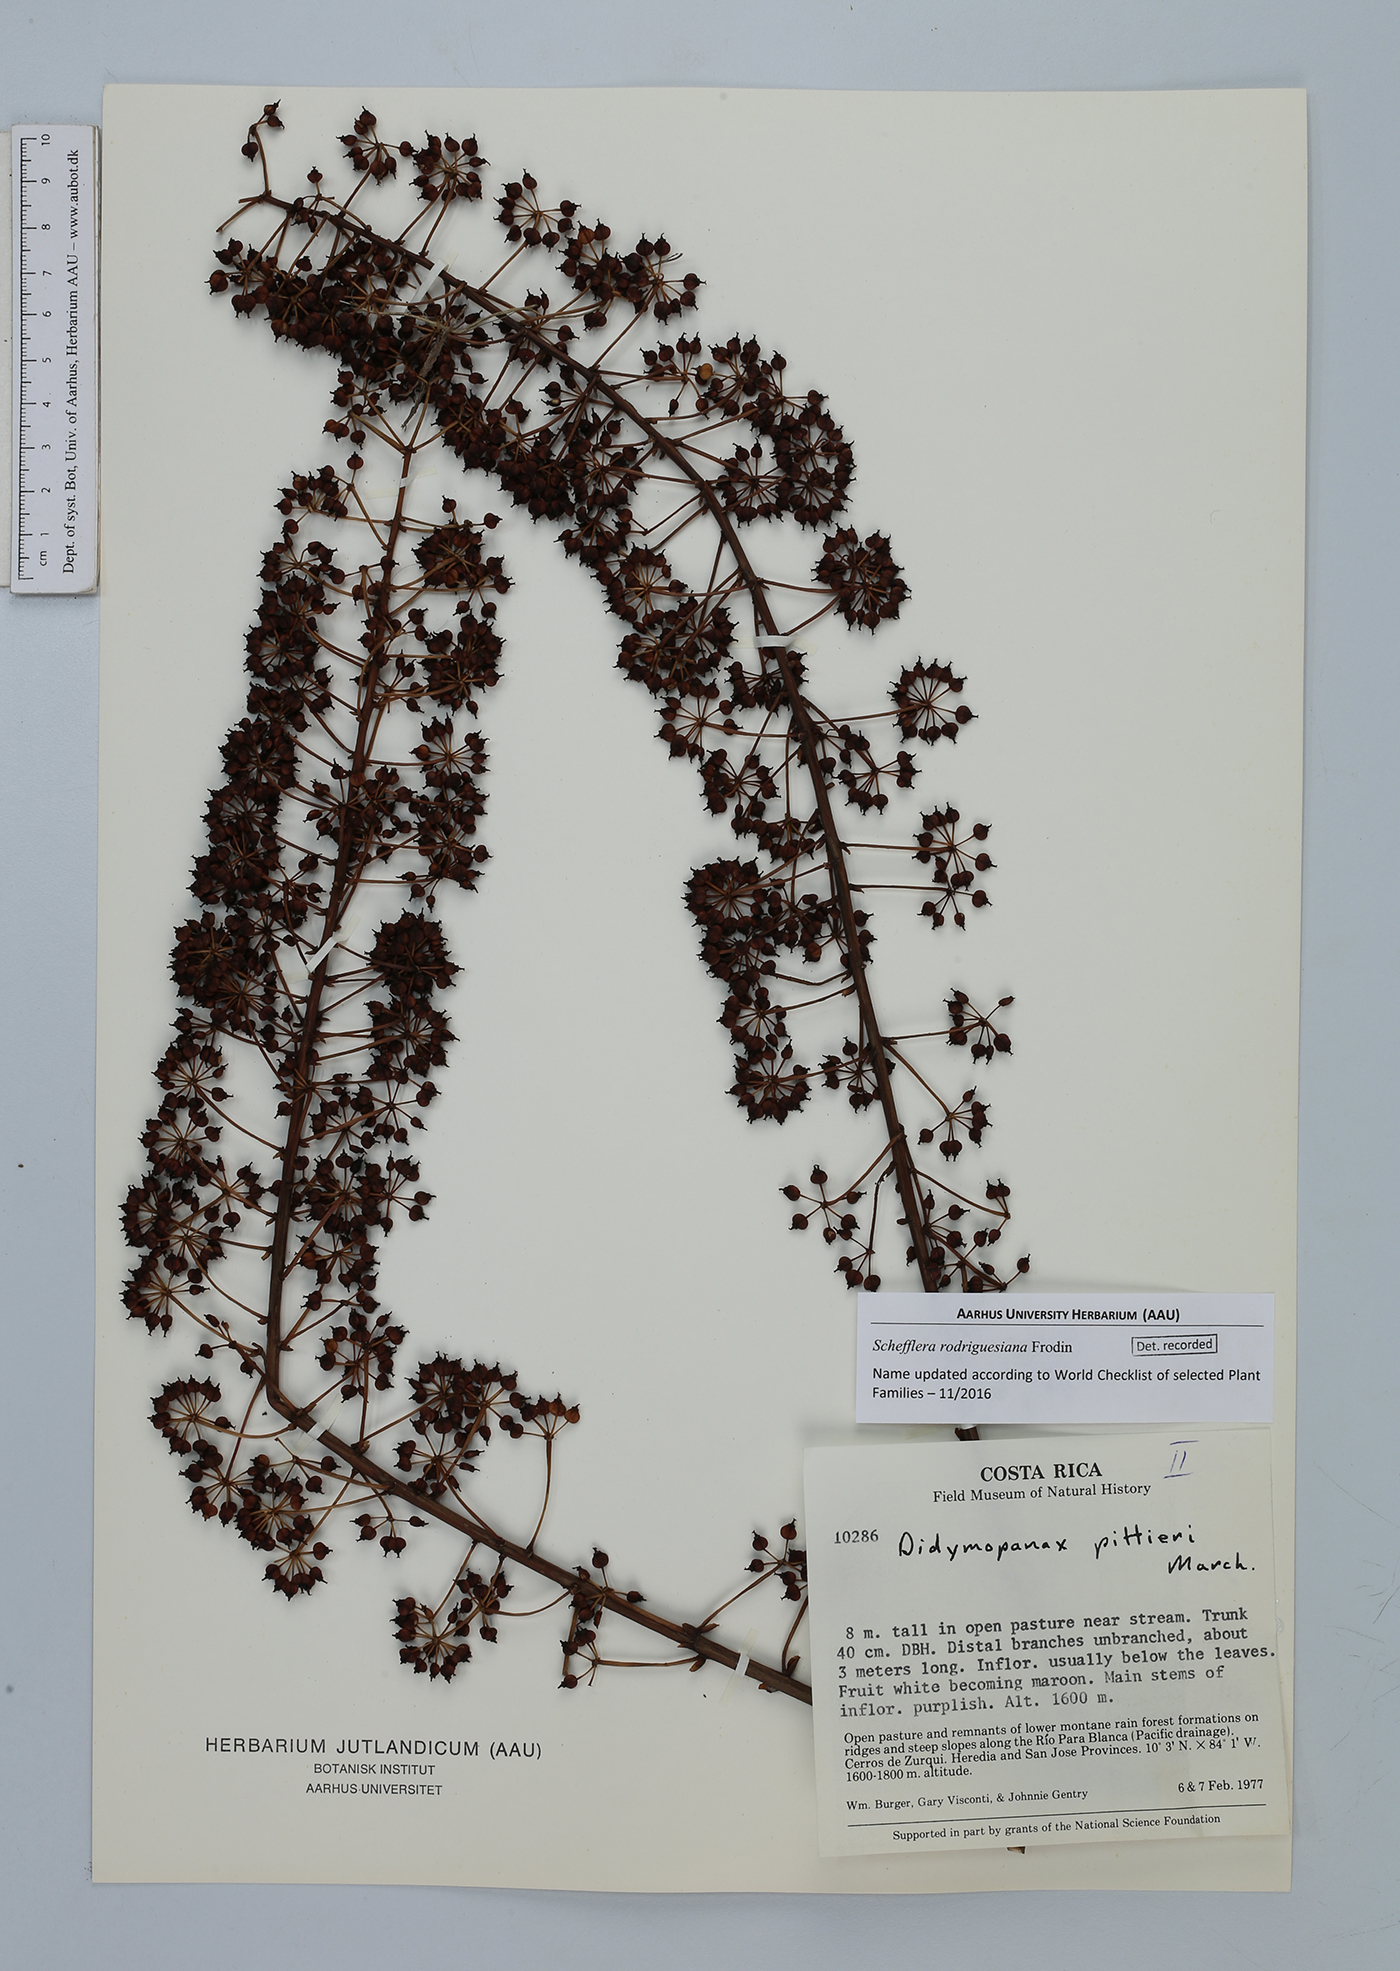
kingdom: Plantae
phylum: Tracheophyta
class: Magnoliopsida
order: Apiales
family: Araliaceae
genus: Sciodaphyllum
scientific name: Sciodaphyllum pittieri
